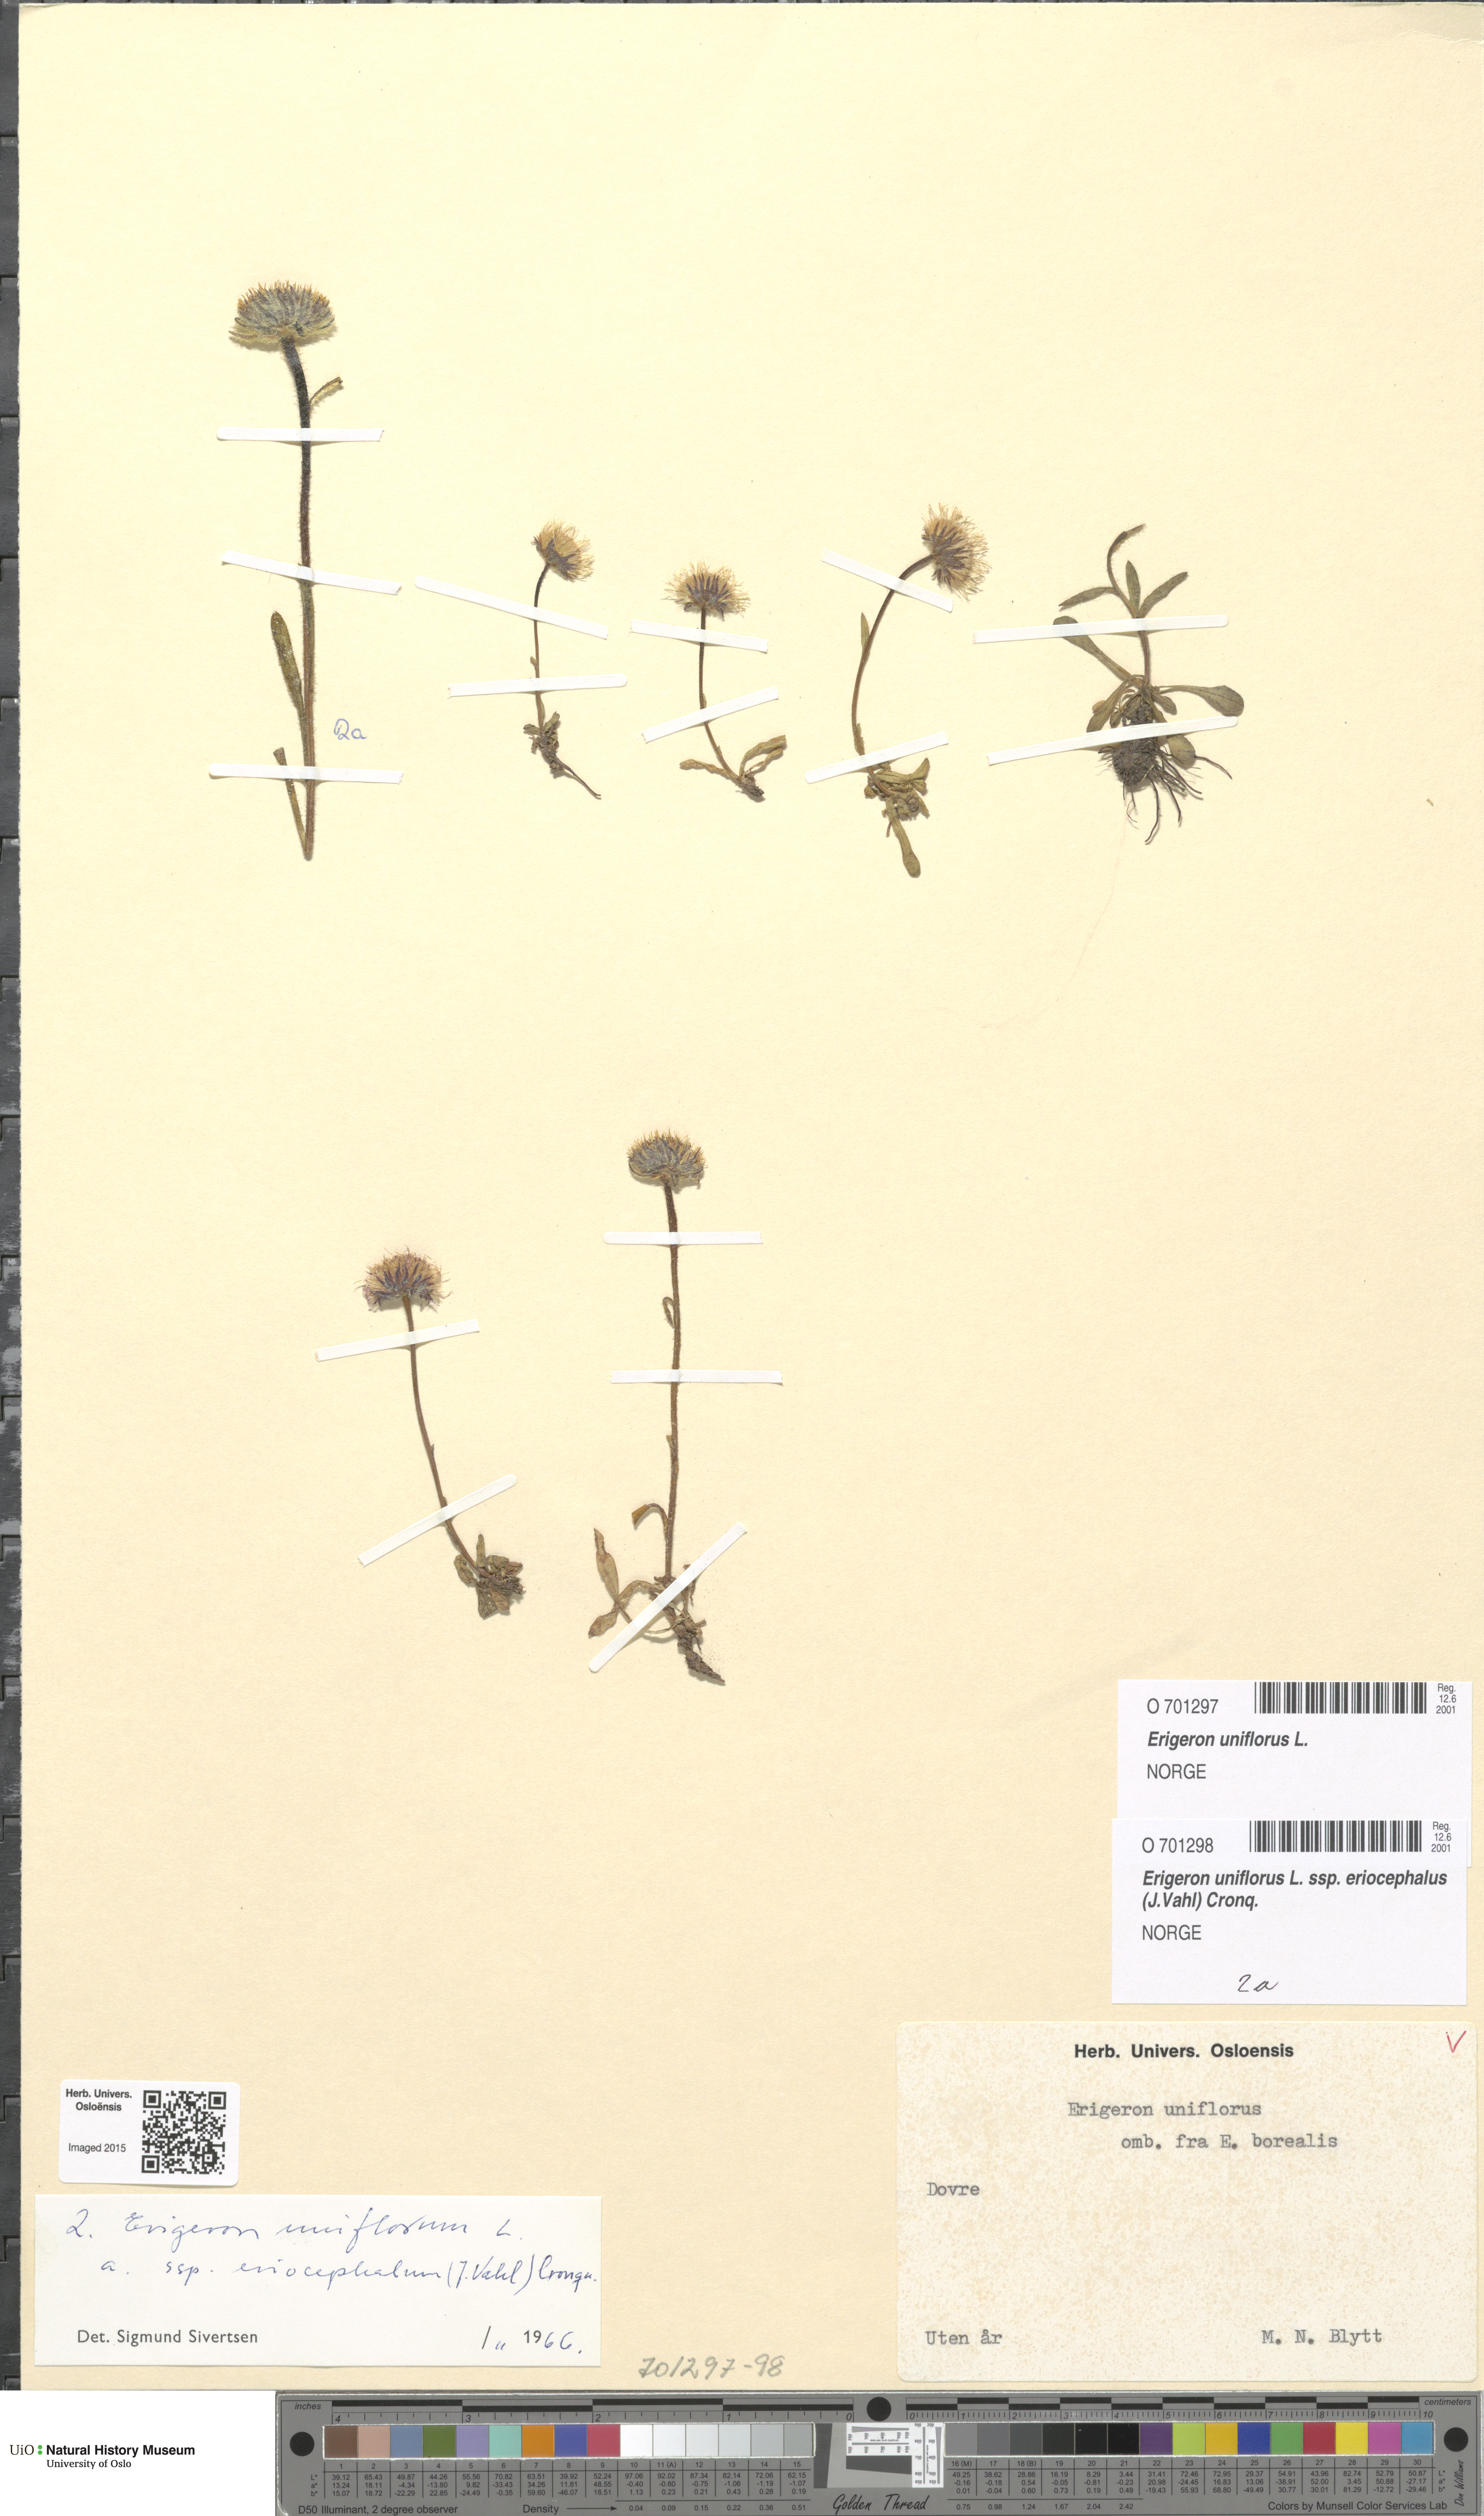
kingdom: Plantae
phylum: Tracheophyta
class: Magnoliopsida
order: Asterales
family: Asteraceae
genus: Erigeron
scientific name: Erigeron eriocephalus
